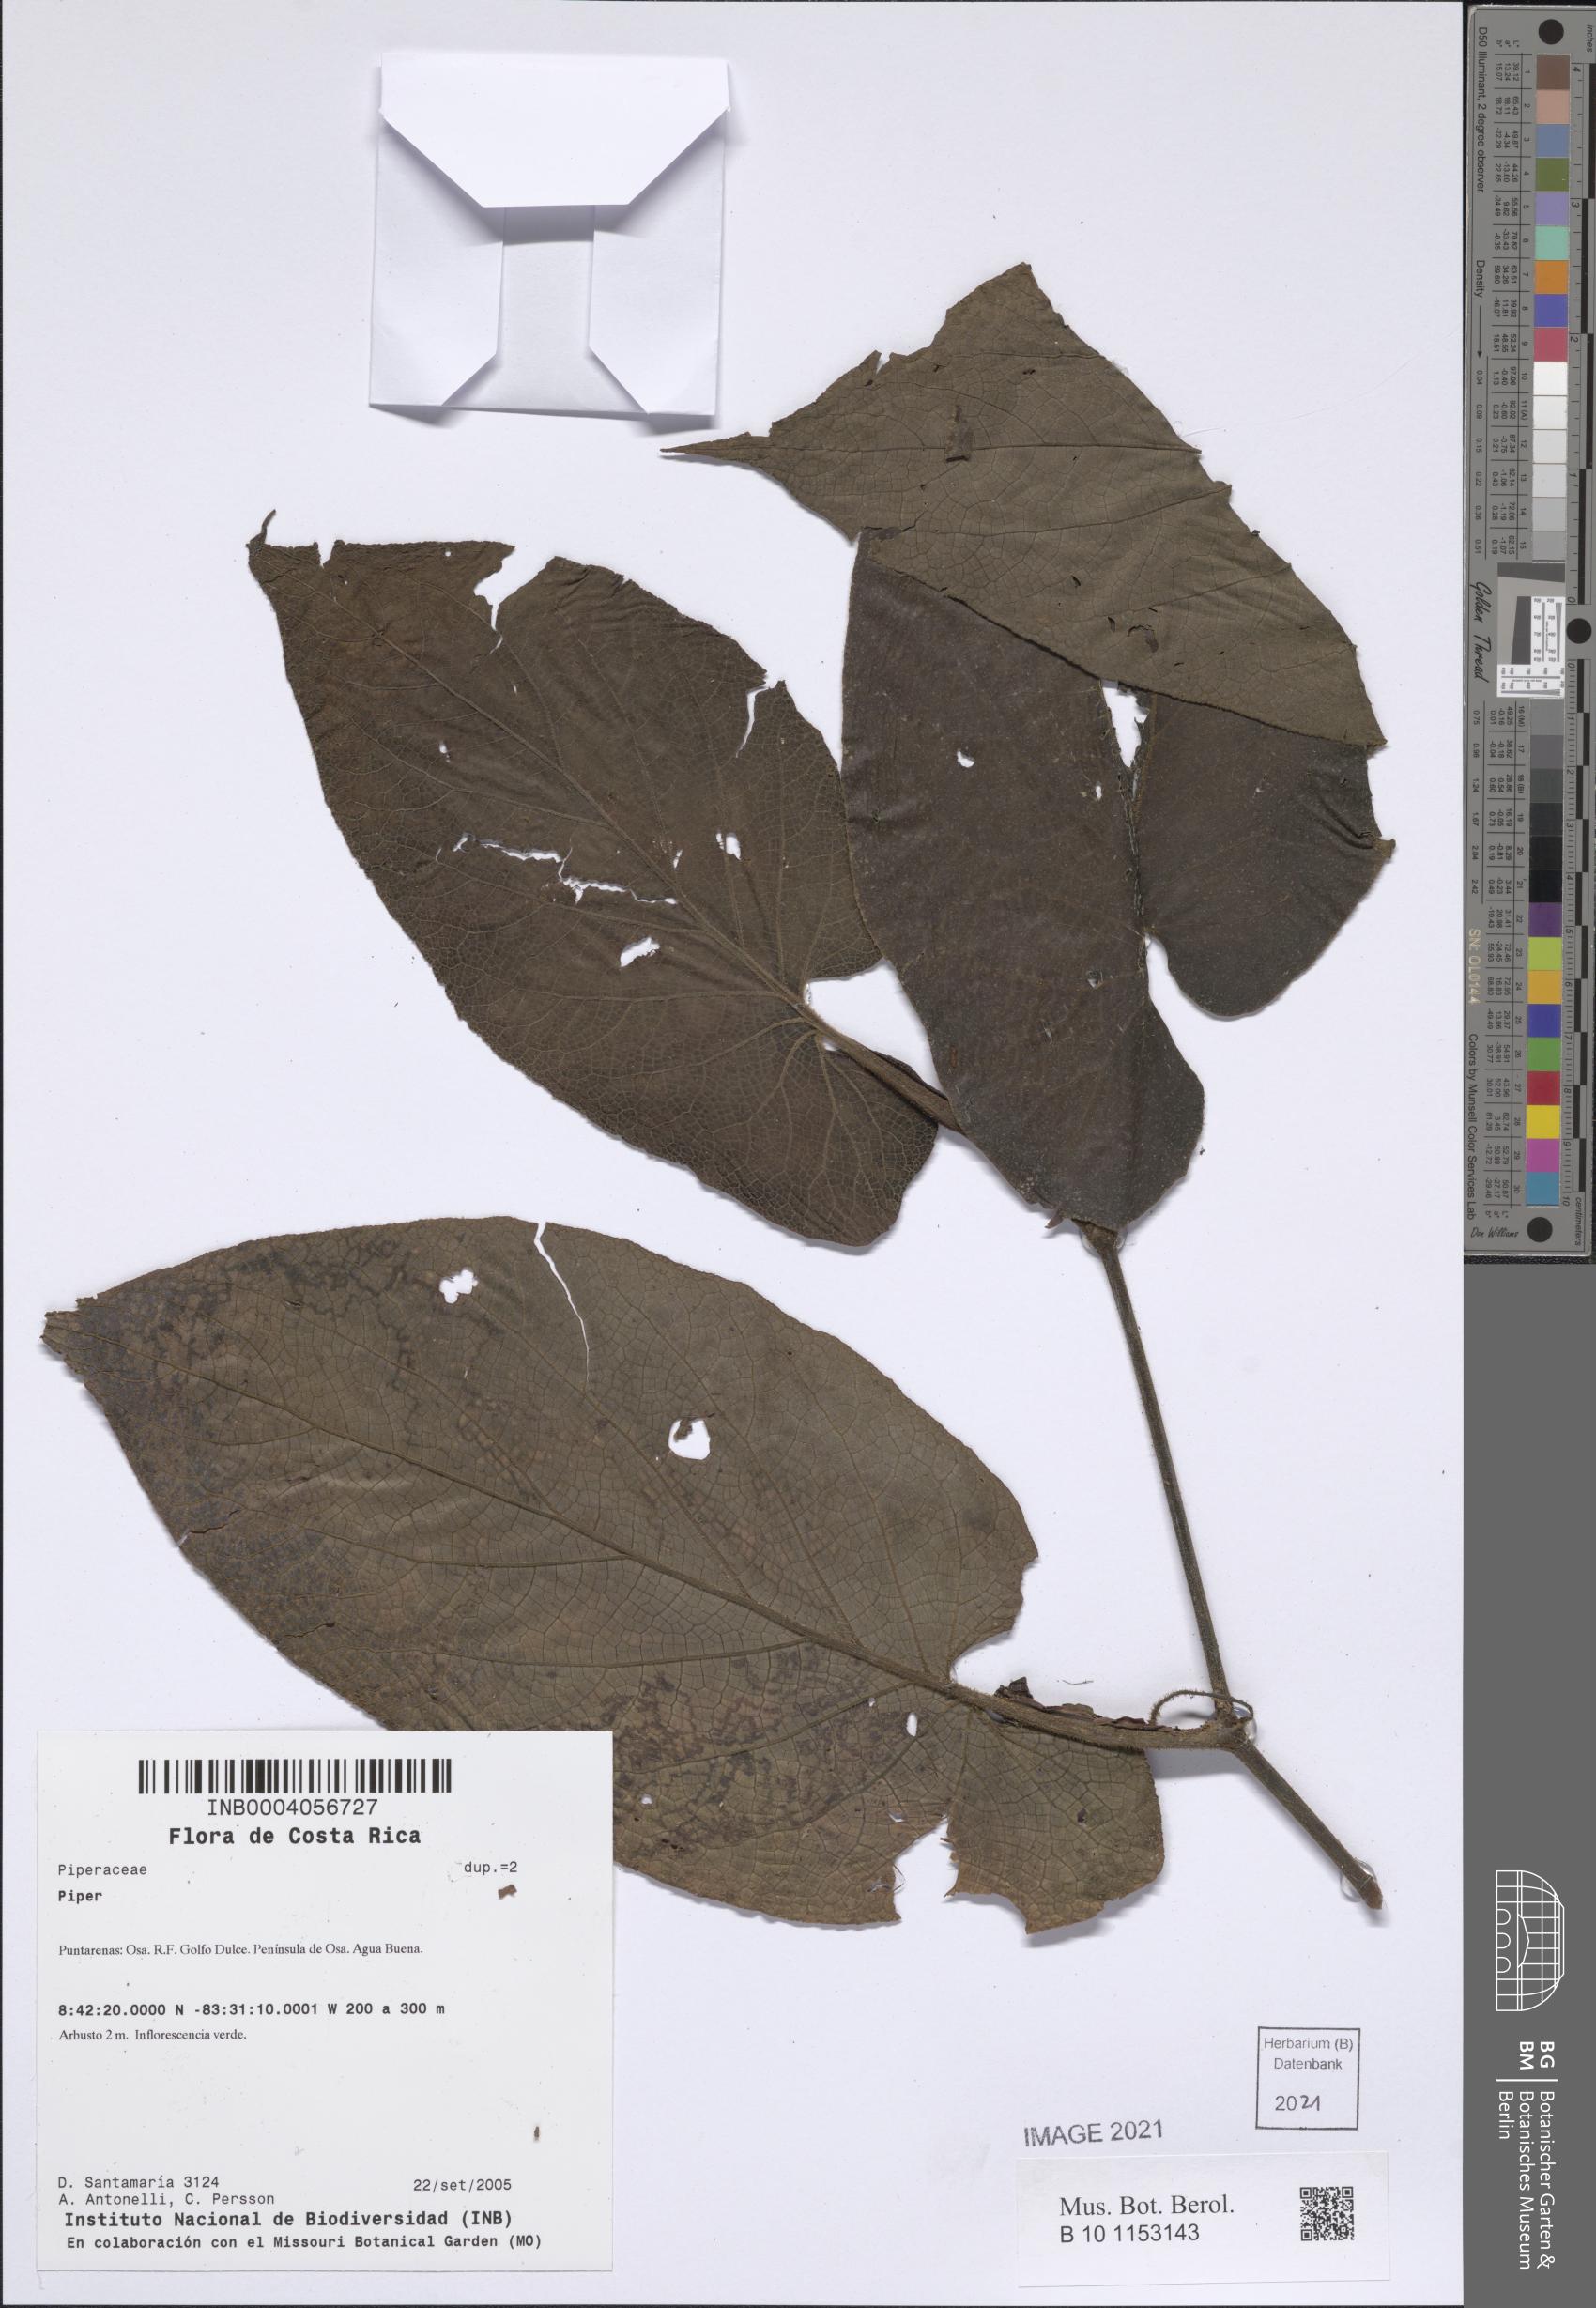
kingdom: Plantae
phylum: Tracheophyta
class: Magnoliopsida
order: Piperales
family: Piperaceae
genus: Piper
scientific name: Piper
